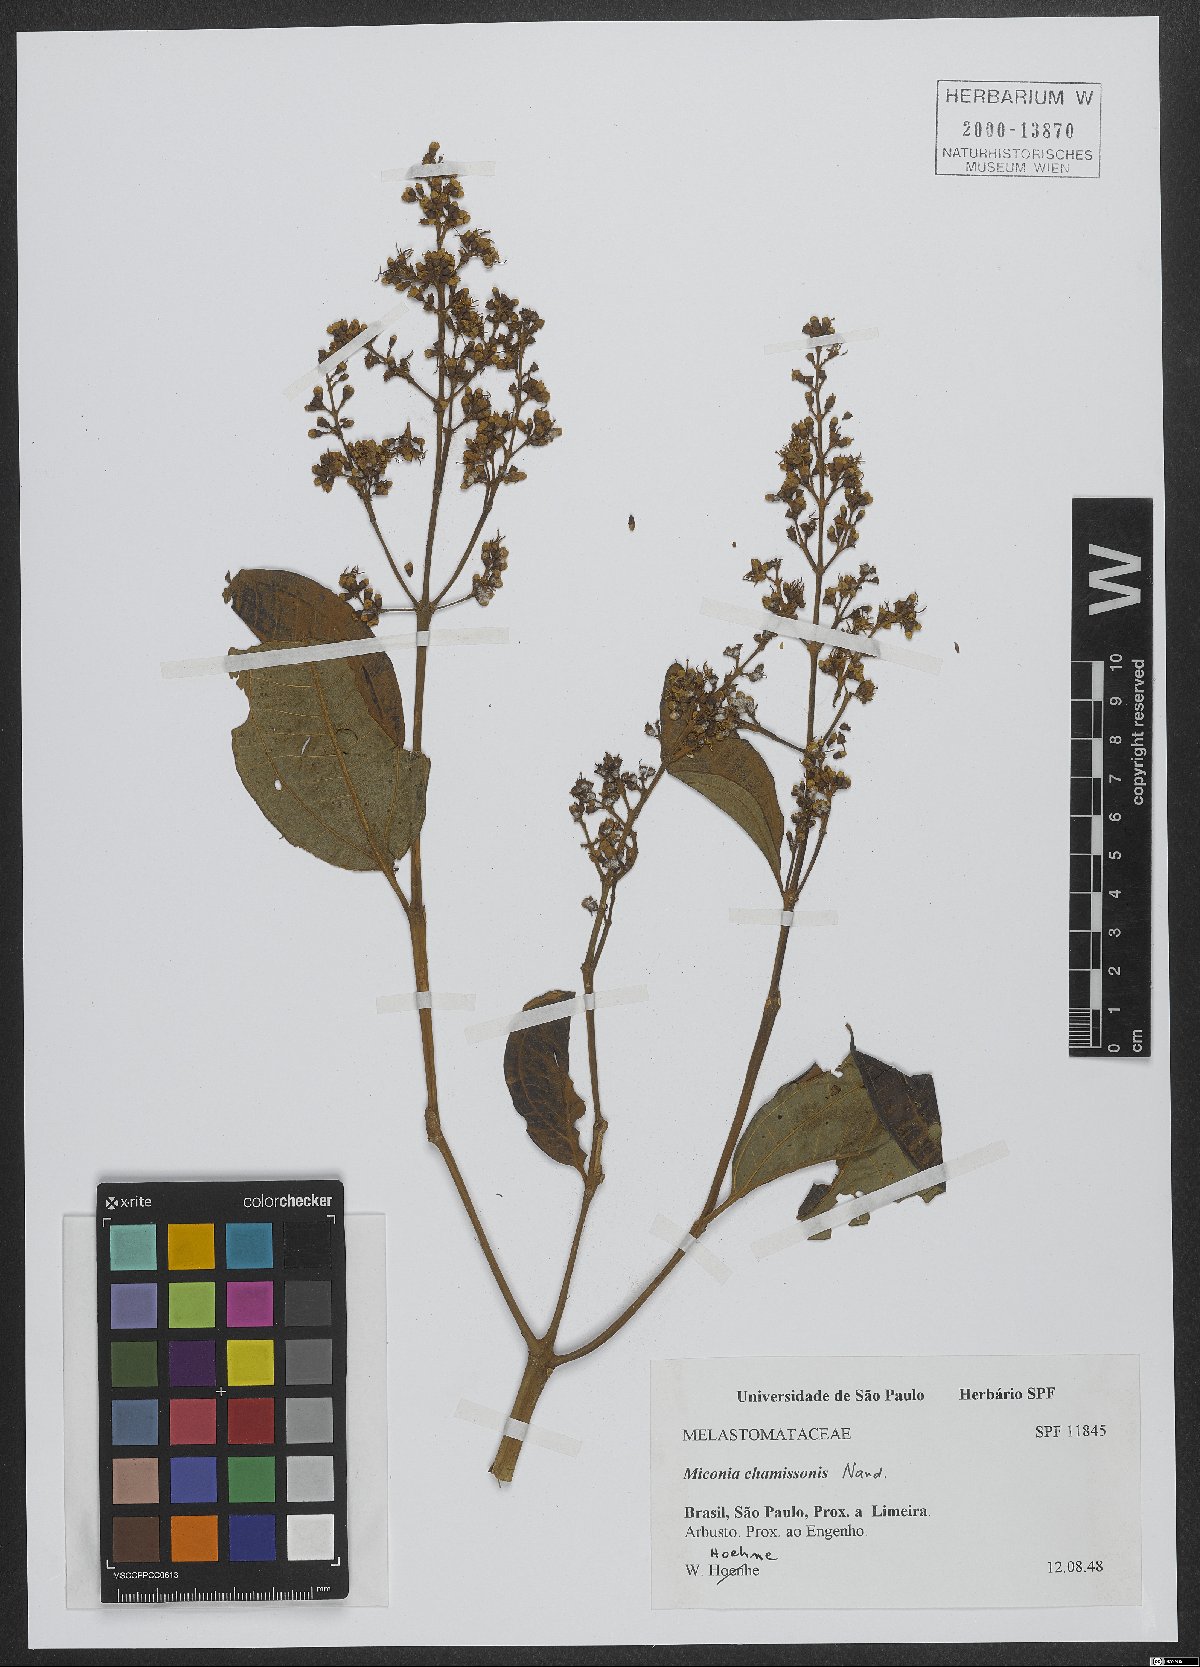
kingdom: Plantae
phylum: Tracheophyta
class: Magnoliopsida
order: Myrtales
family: Melastomataceae
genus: Miconia
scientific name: Miconia chamissois
